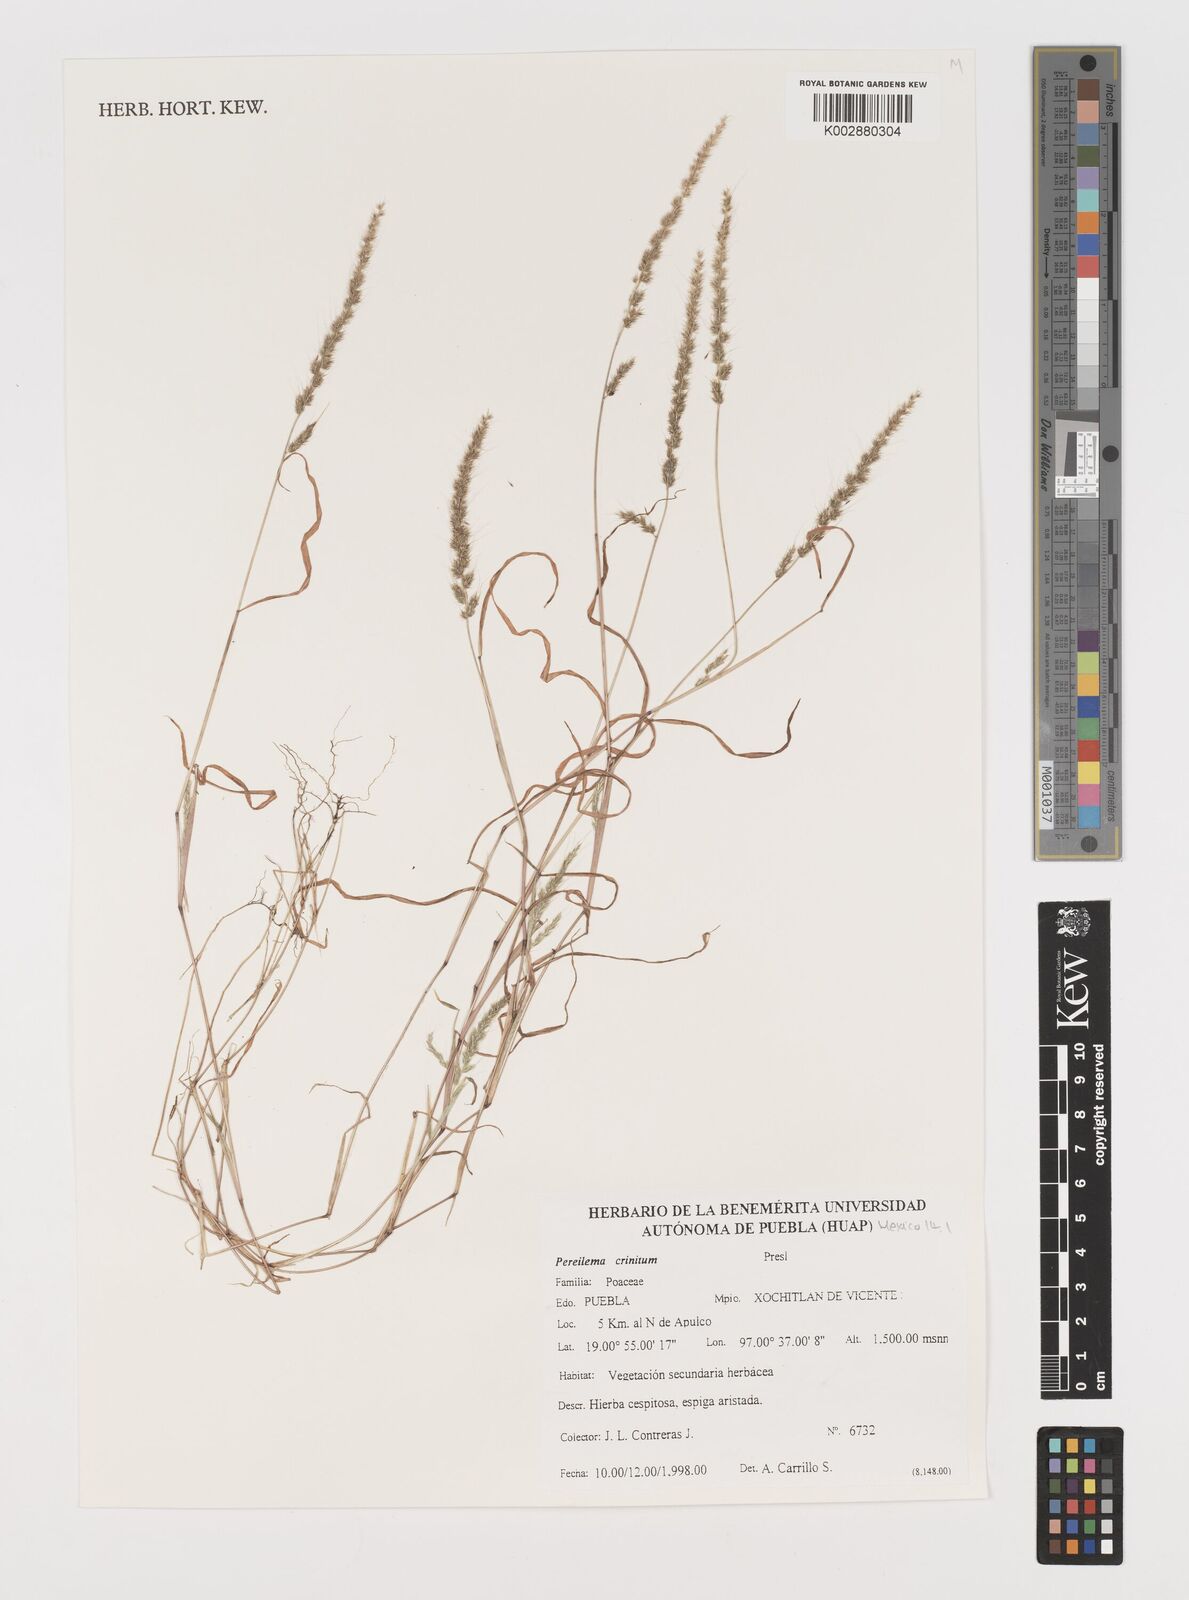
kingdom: Plantae
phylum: Tracheophyta
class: Liliopsida
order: Poales
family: Poaceae
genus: Muhlenbergia
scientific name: Muhlenbergia pereilema
